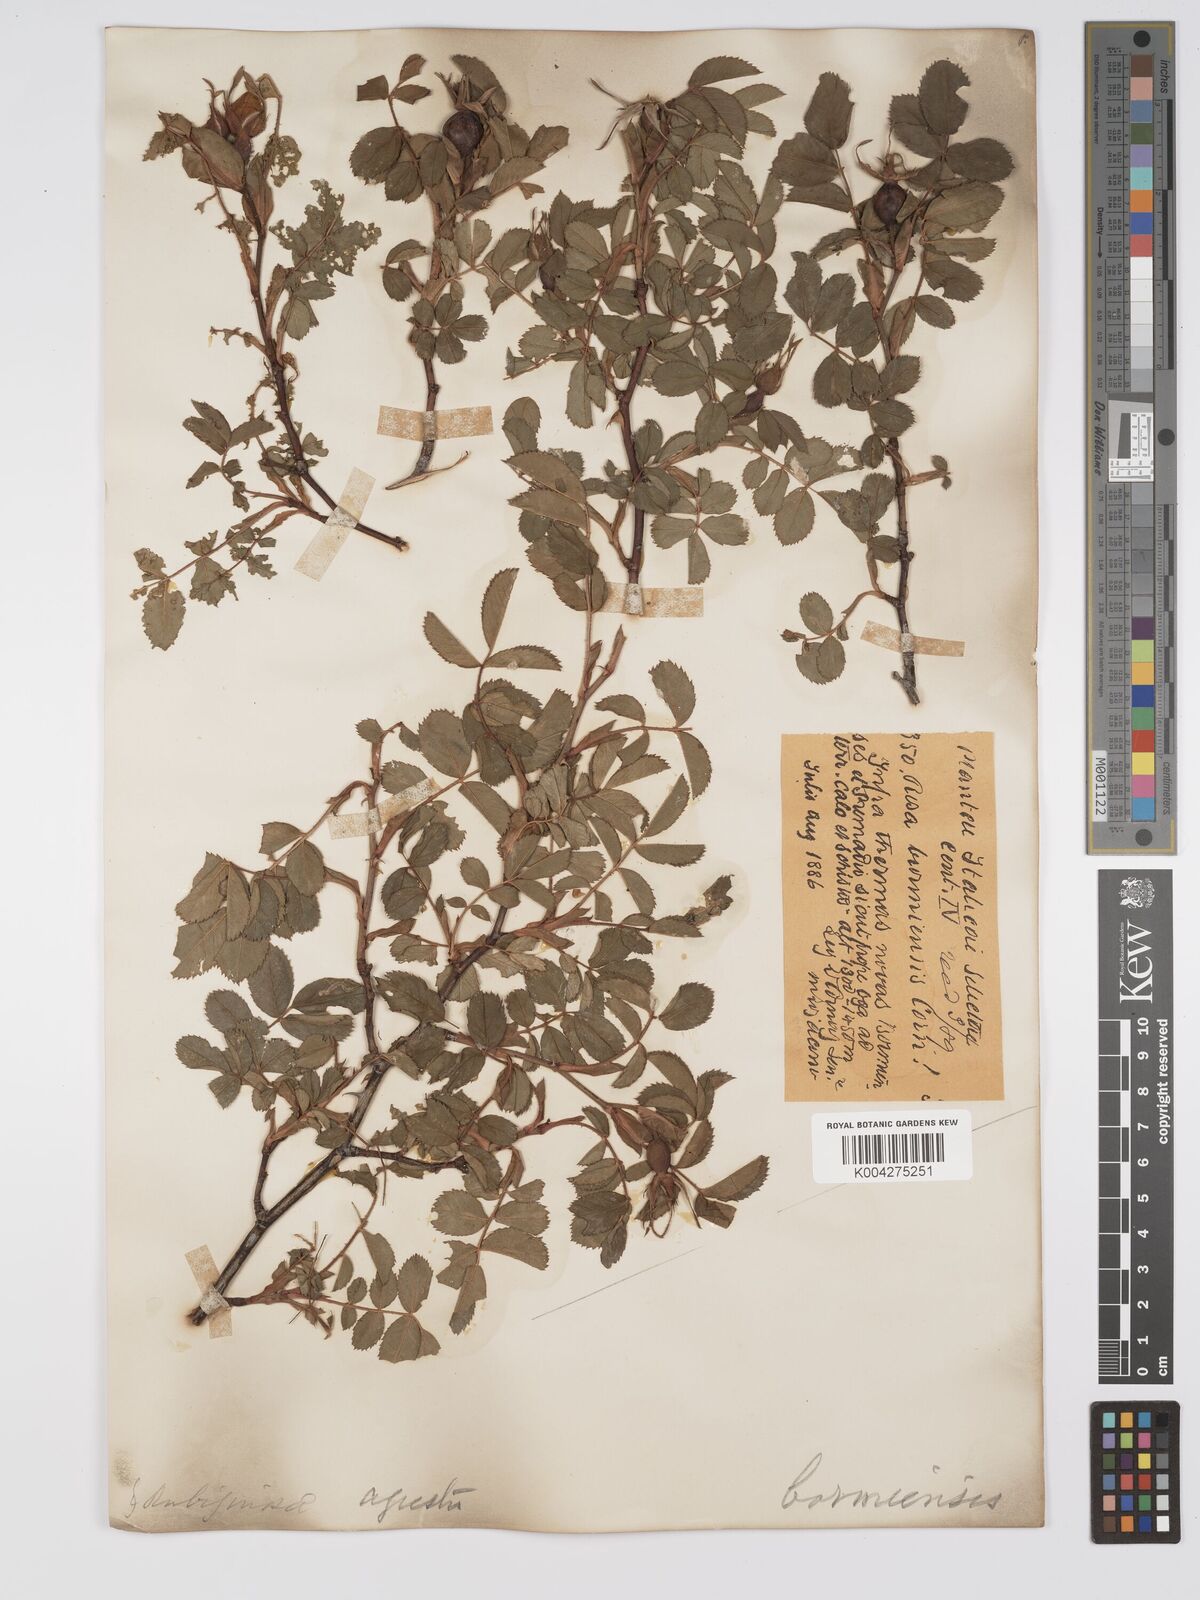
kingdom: Plantae
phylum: Tracheophyta
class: Magnoliopsida
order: Rosales
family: Rosaceae
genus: Rosa
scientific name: Rosa
